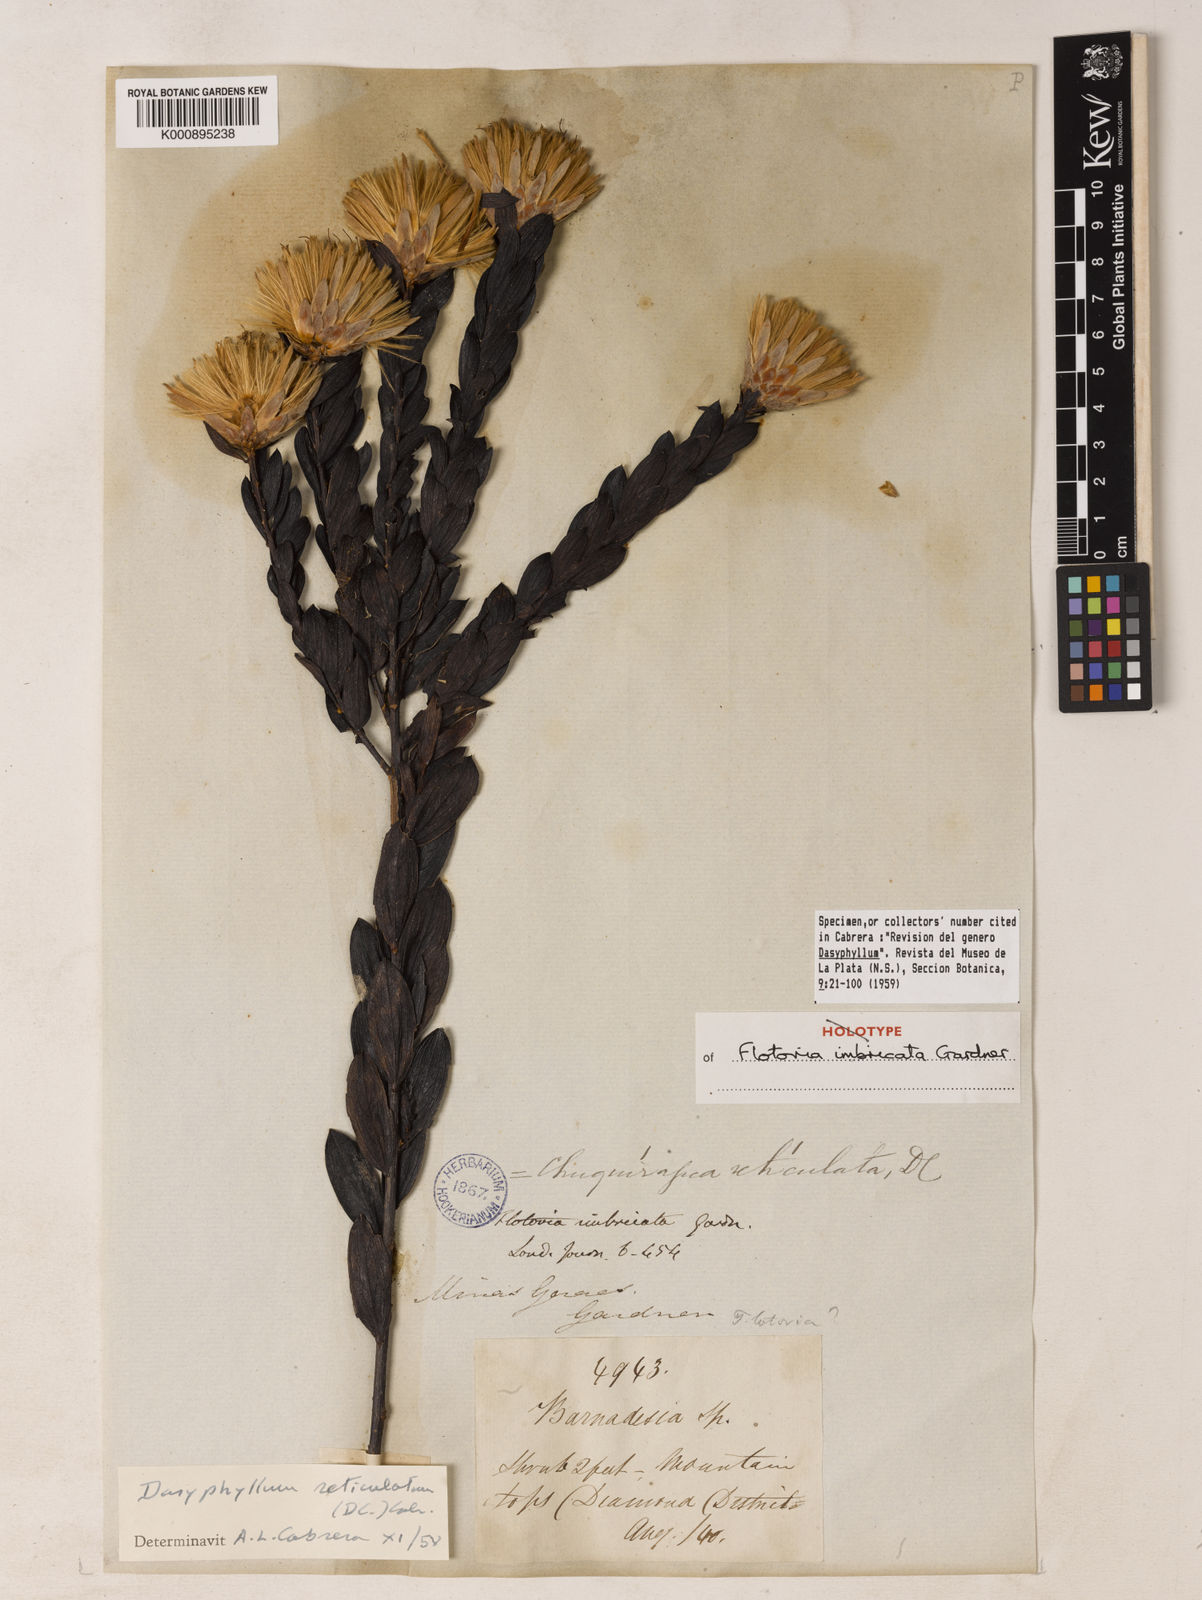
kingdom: Plantae
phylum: Tracheophyta
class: Magnoliopsida
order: Asterales
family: Asteraceae
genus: Dasyphyllum
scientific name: Dasyphyllum reticulatum
